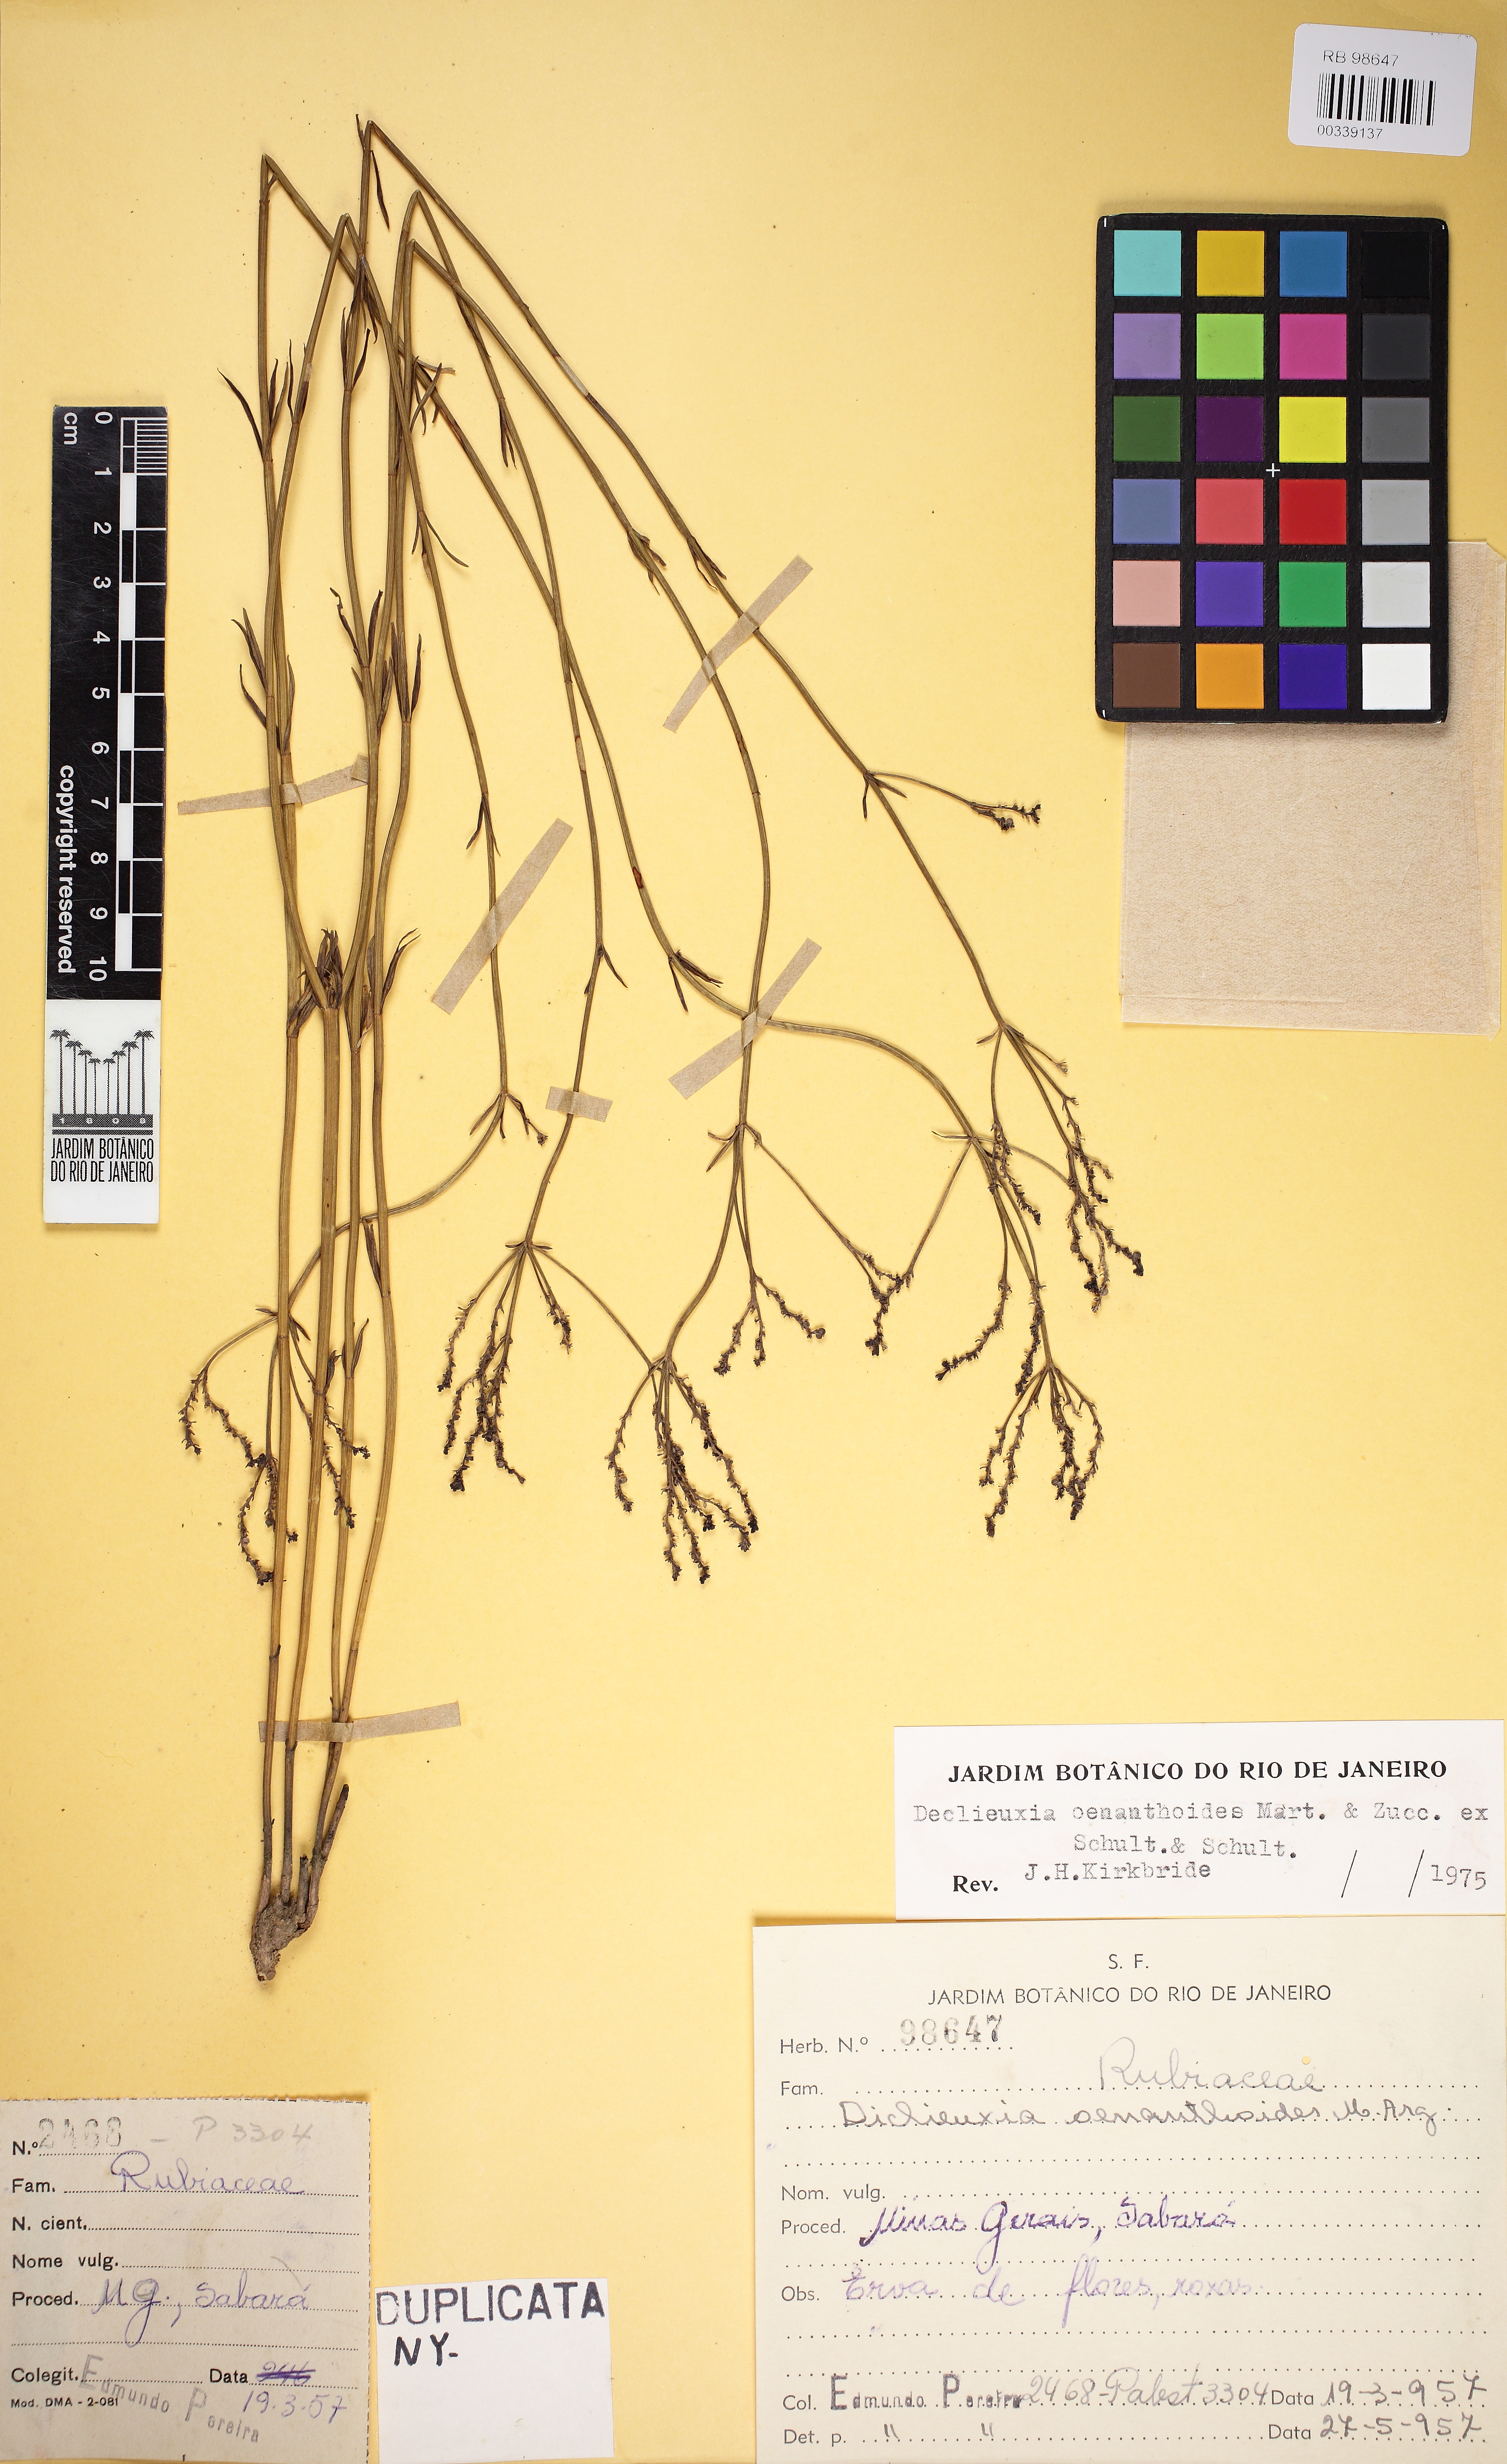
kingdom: Plantae
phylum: Tracheophyta
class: Magnoliopsida
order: Gentianales
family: Rubiaceae
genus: Declieuxia
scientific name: Declieuxia oenanthoides
